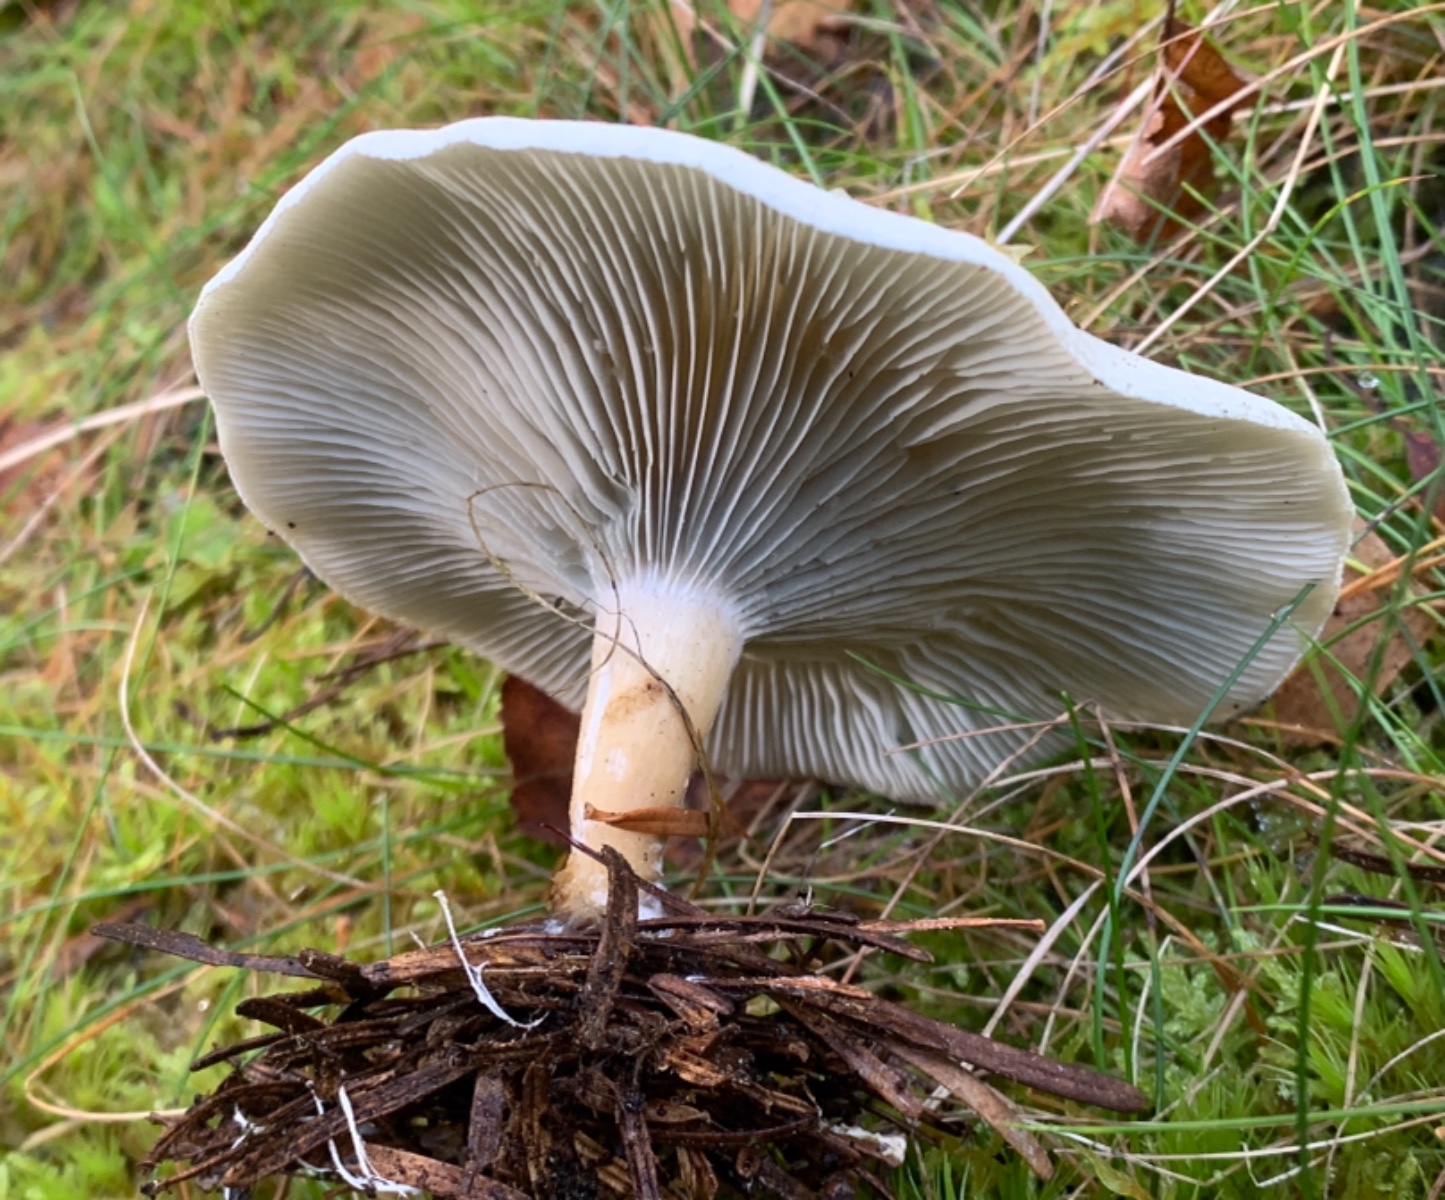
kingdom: Fungi
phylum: Basidiomycota
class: Agaricomycetes
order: Agaricales
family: Tricholomataceae
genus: Clitocybe
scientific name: Clitocybe odora
